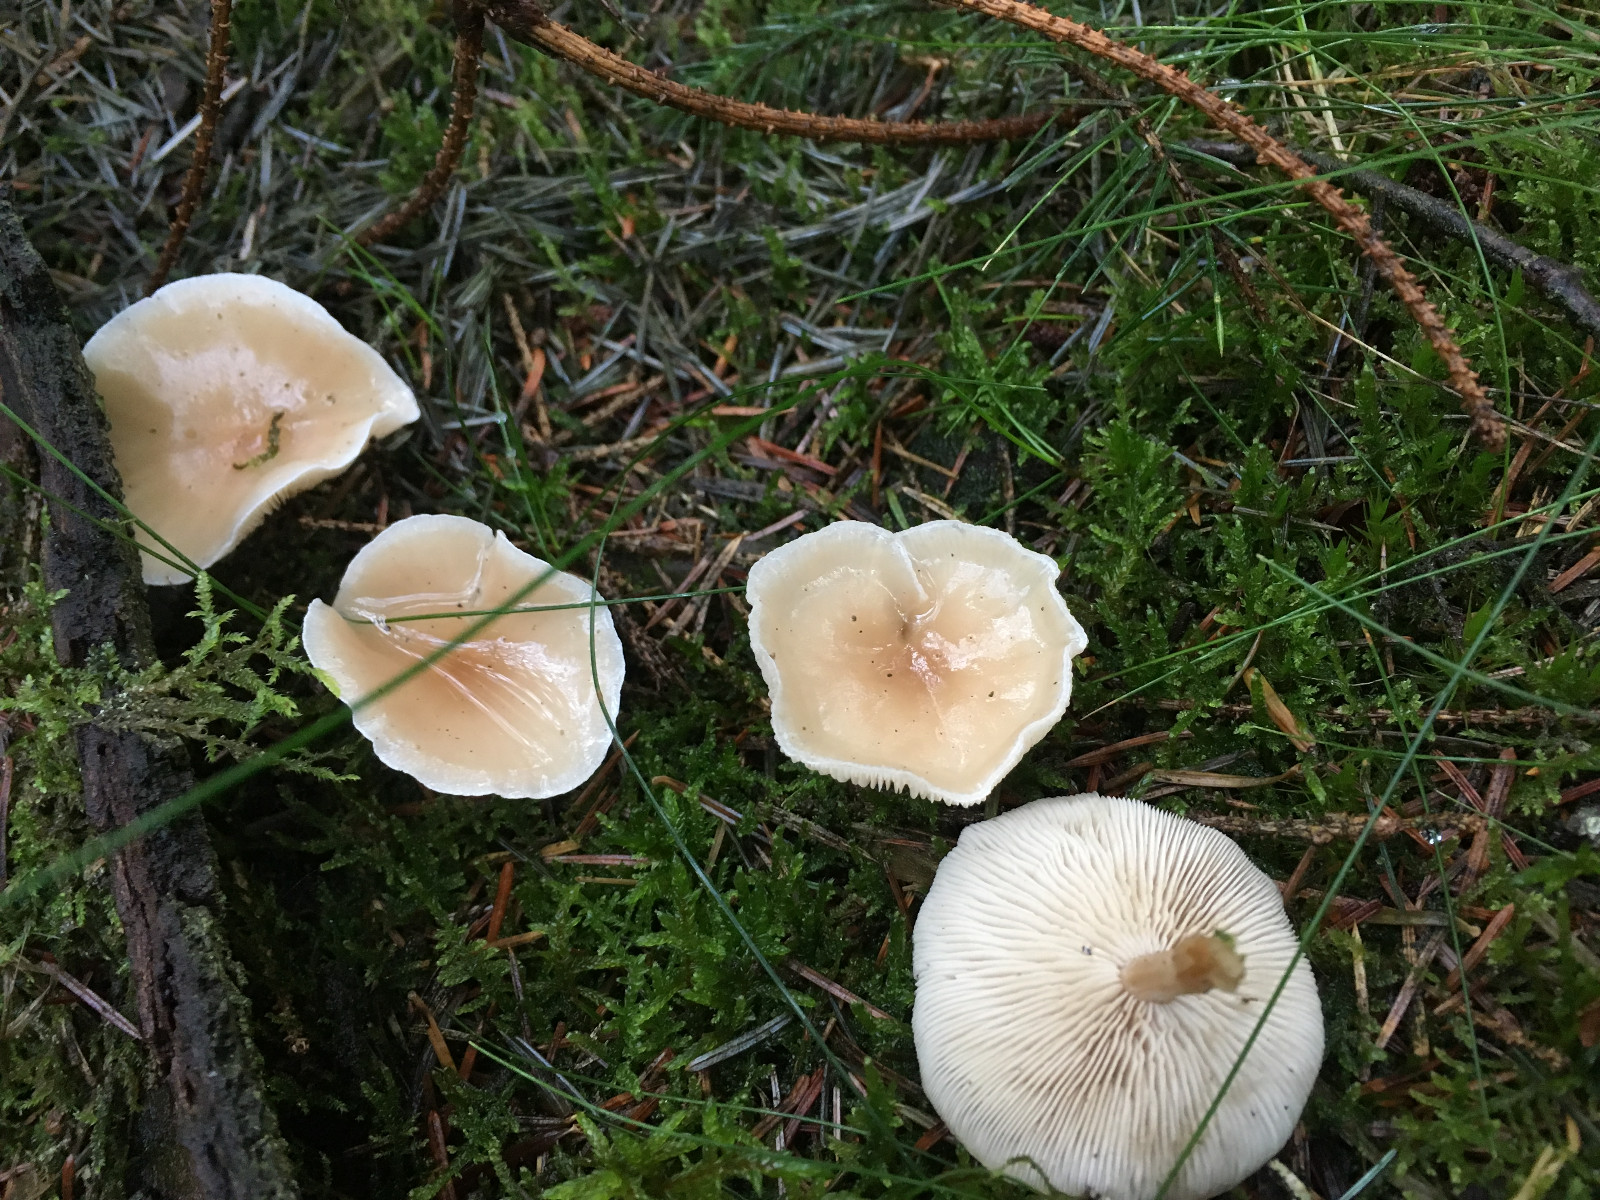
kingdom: Fungi
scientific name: Fungi
